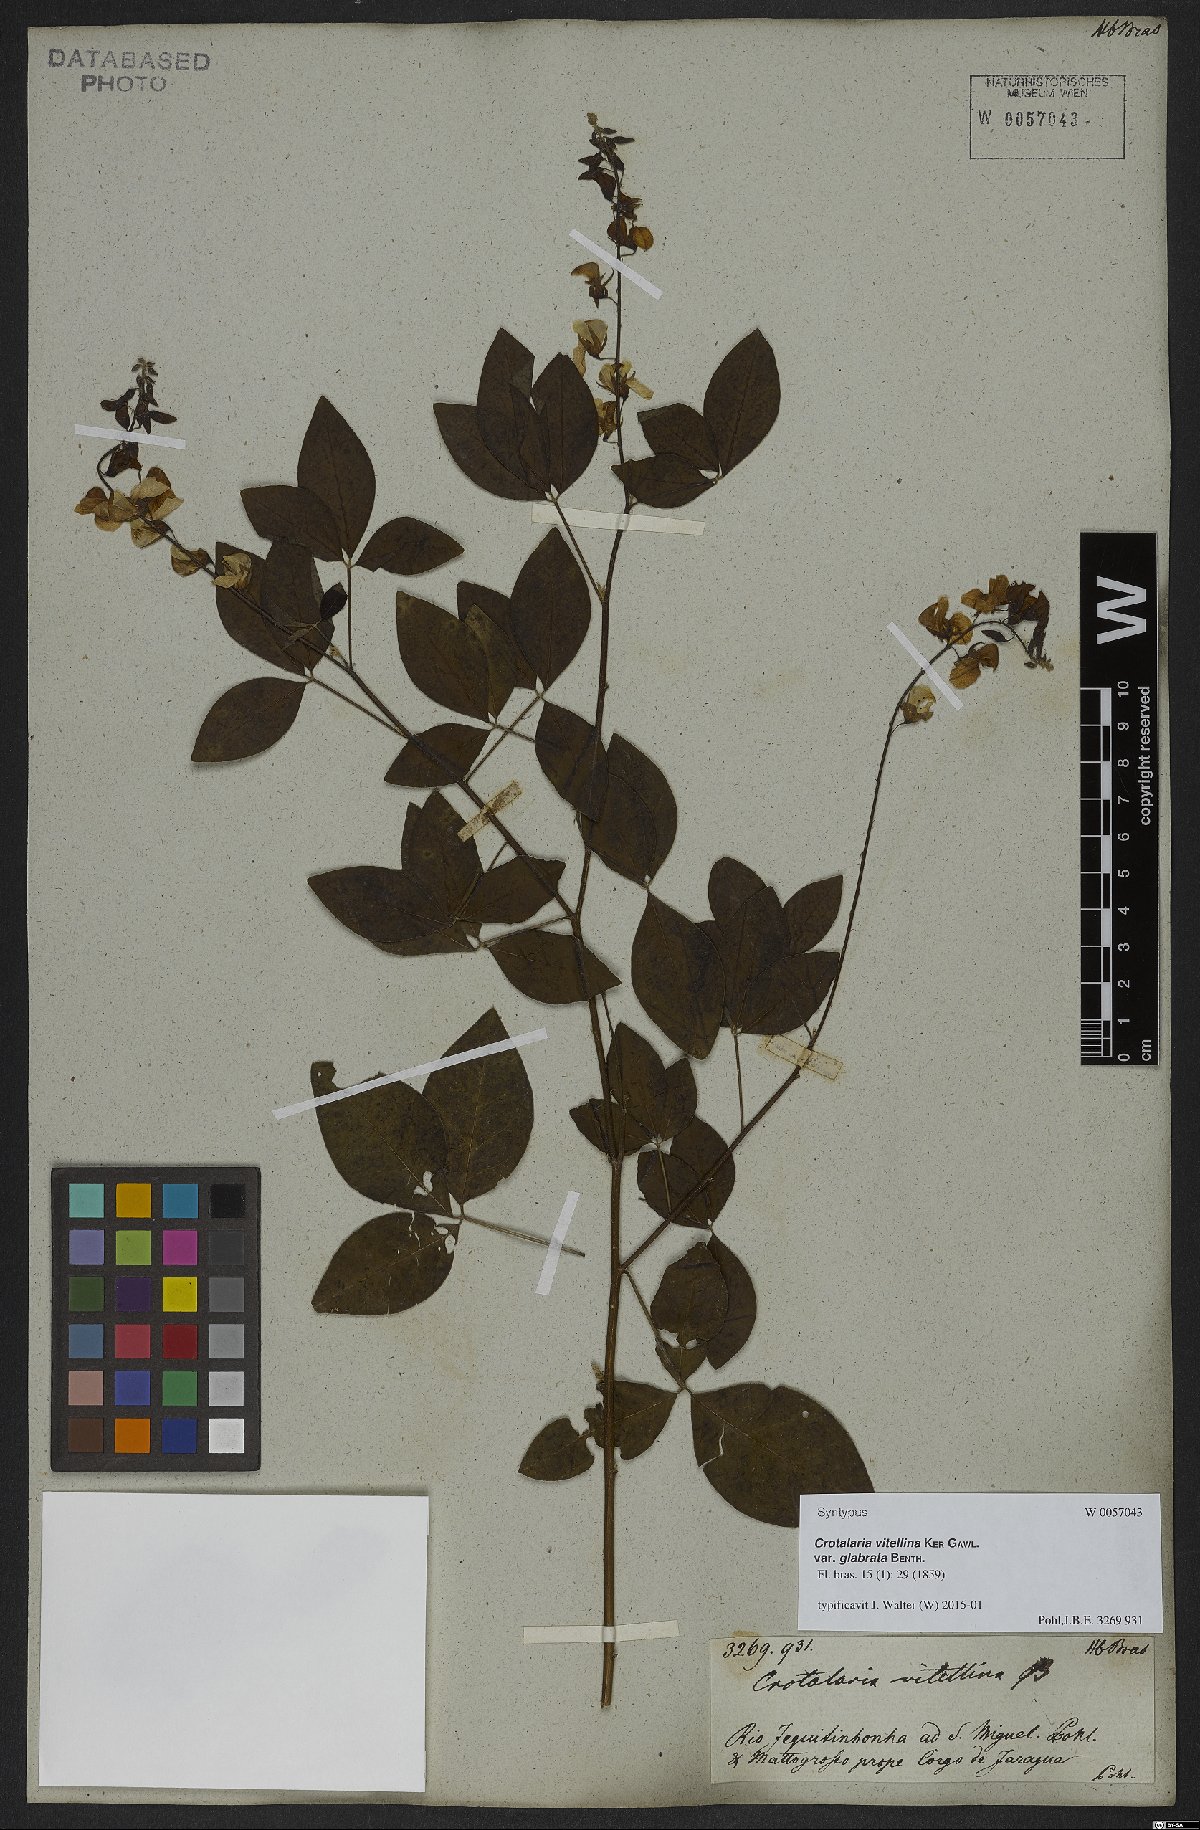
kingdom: Plantae
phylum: Tracheophyta
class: Magnoliopsida
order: Fabales
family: Fabaceae
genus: Crotalaria
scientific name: Crotalaria vitellina
